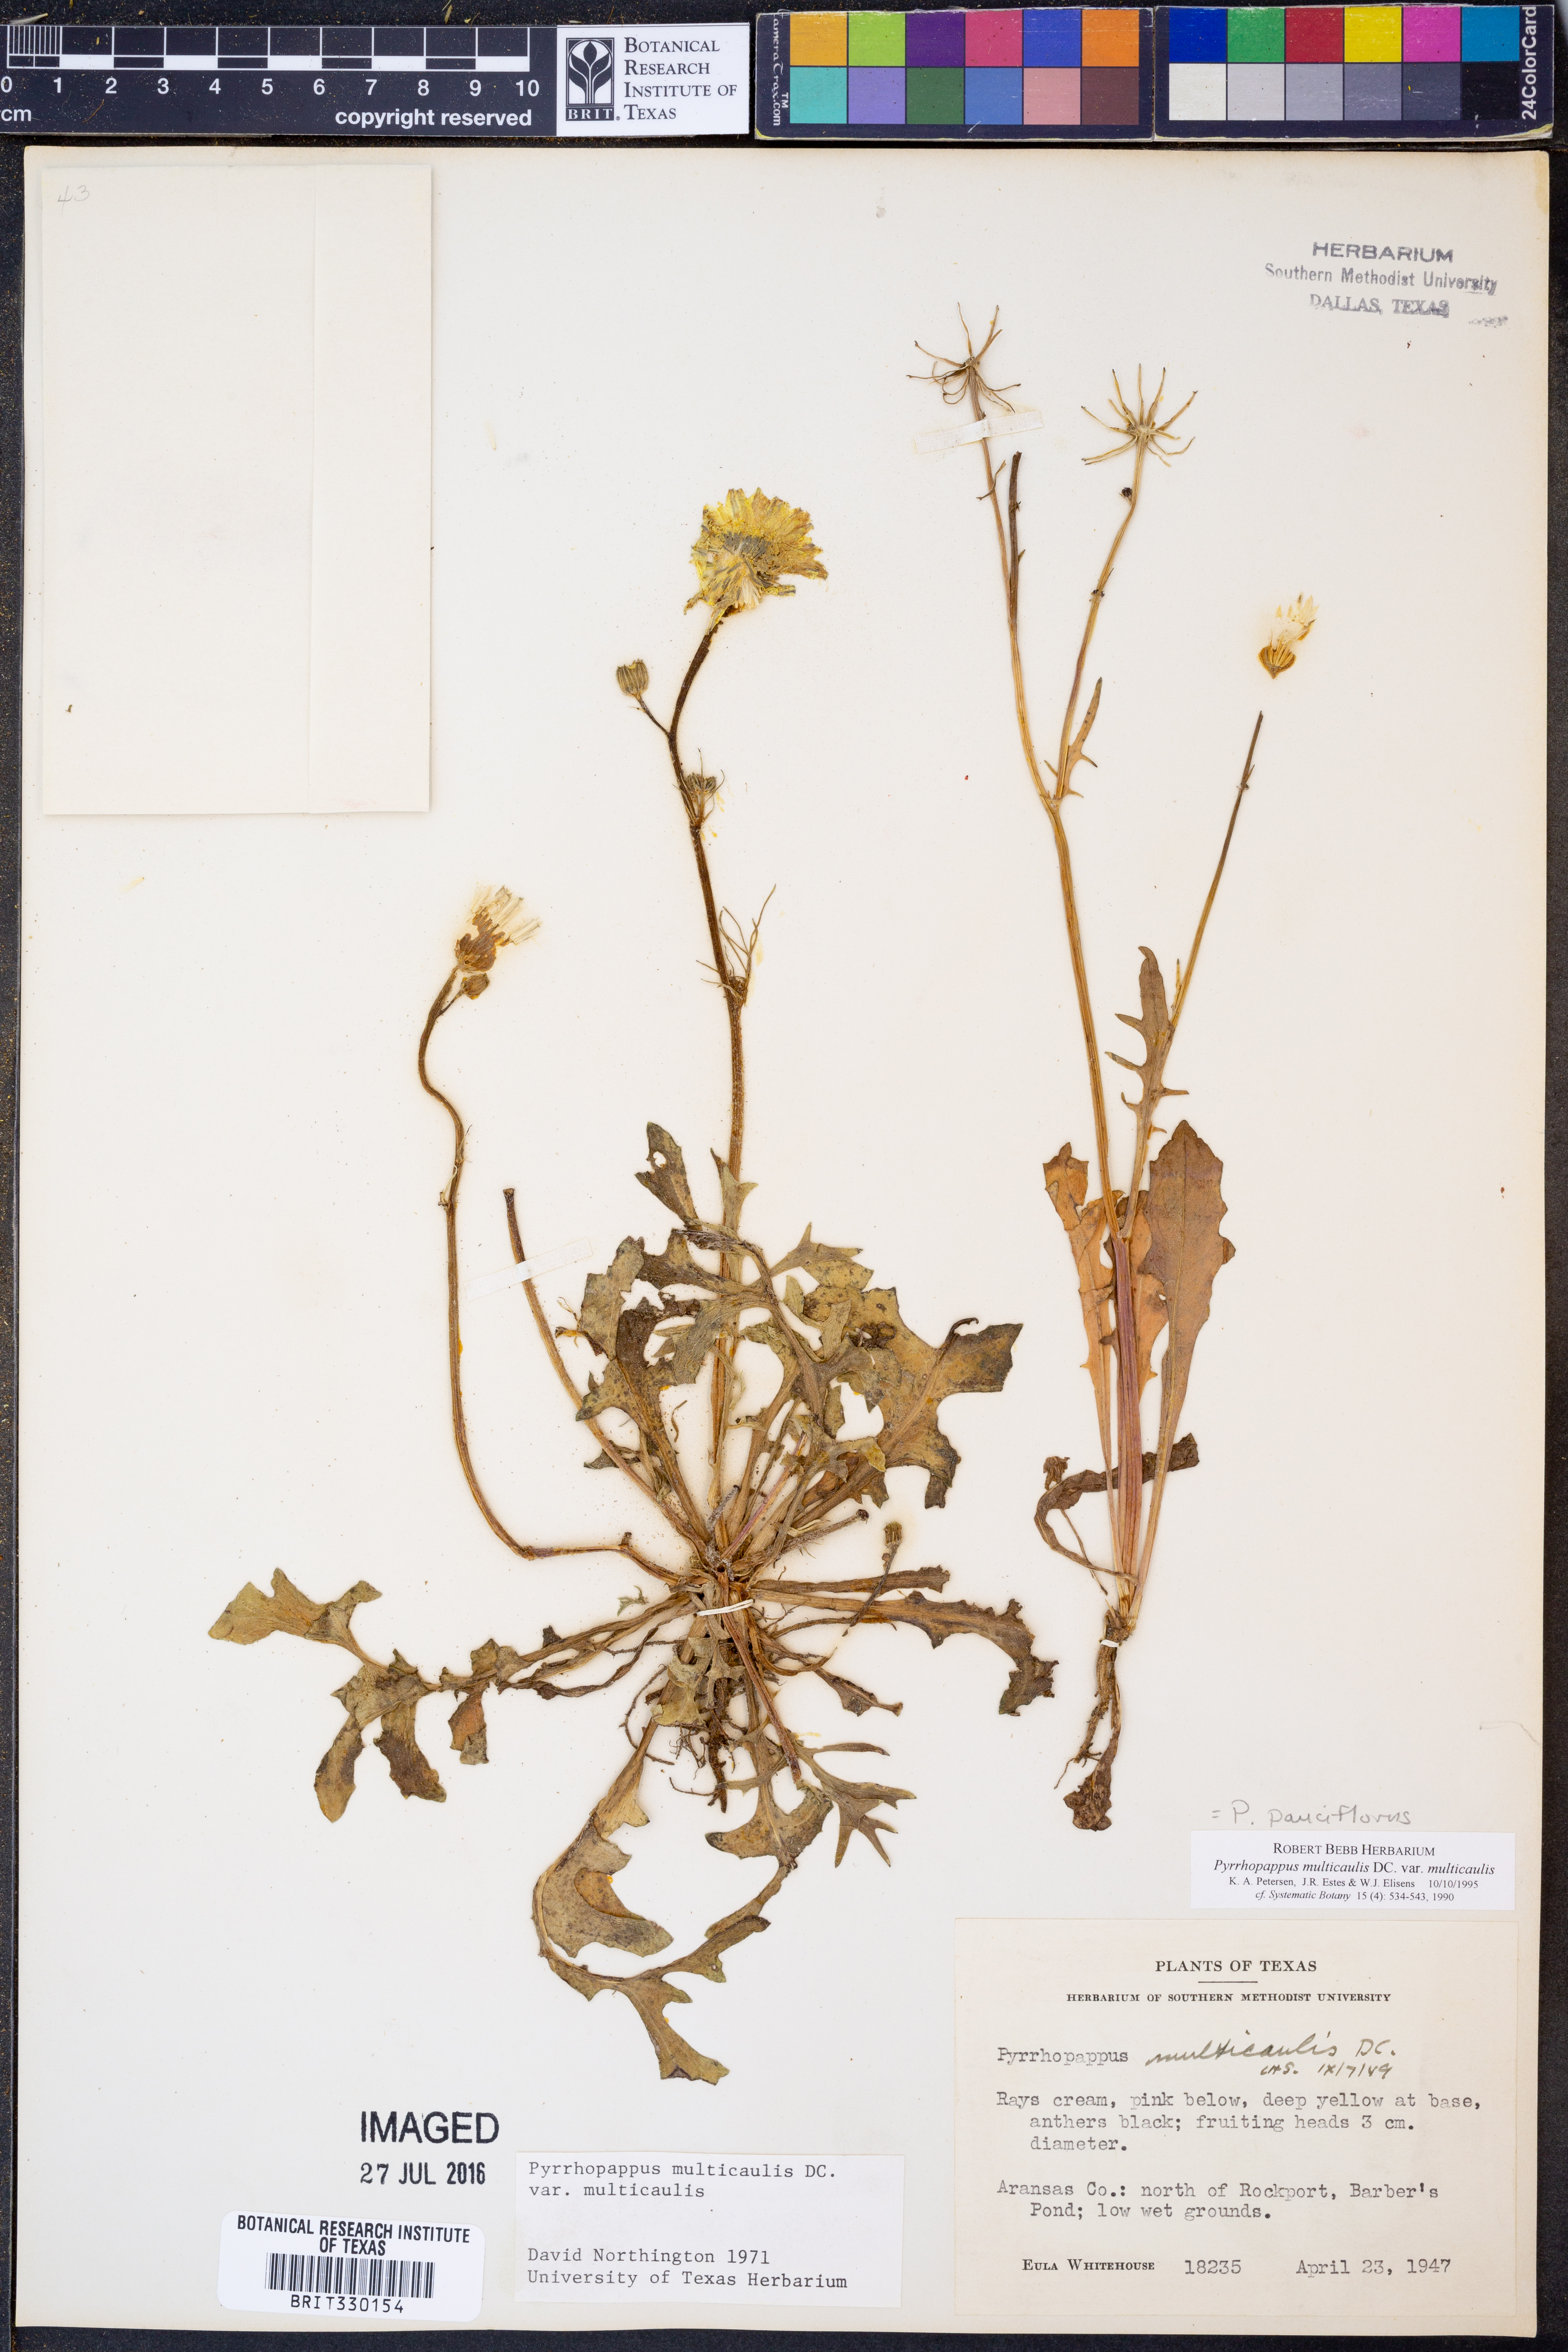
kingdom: Plantae
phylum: Tracheophyta
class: Magnoliopsida
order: Asterales
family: Asteraceae
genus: Pyrrhopappus
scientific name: Pyrrhopappus pauciflorus
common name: Texas false dandelion
